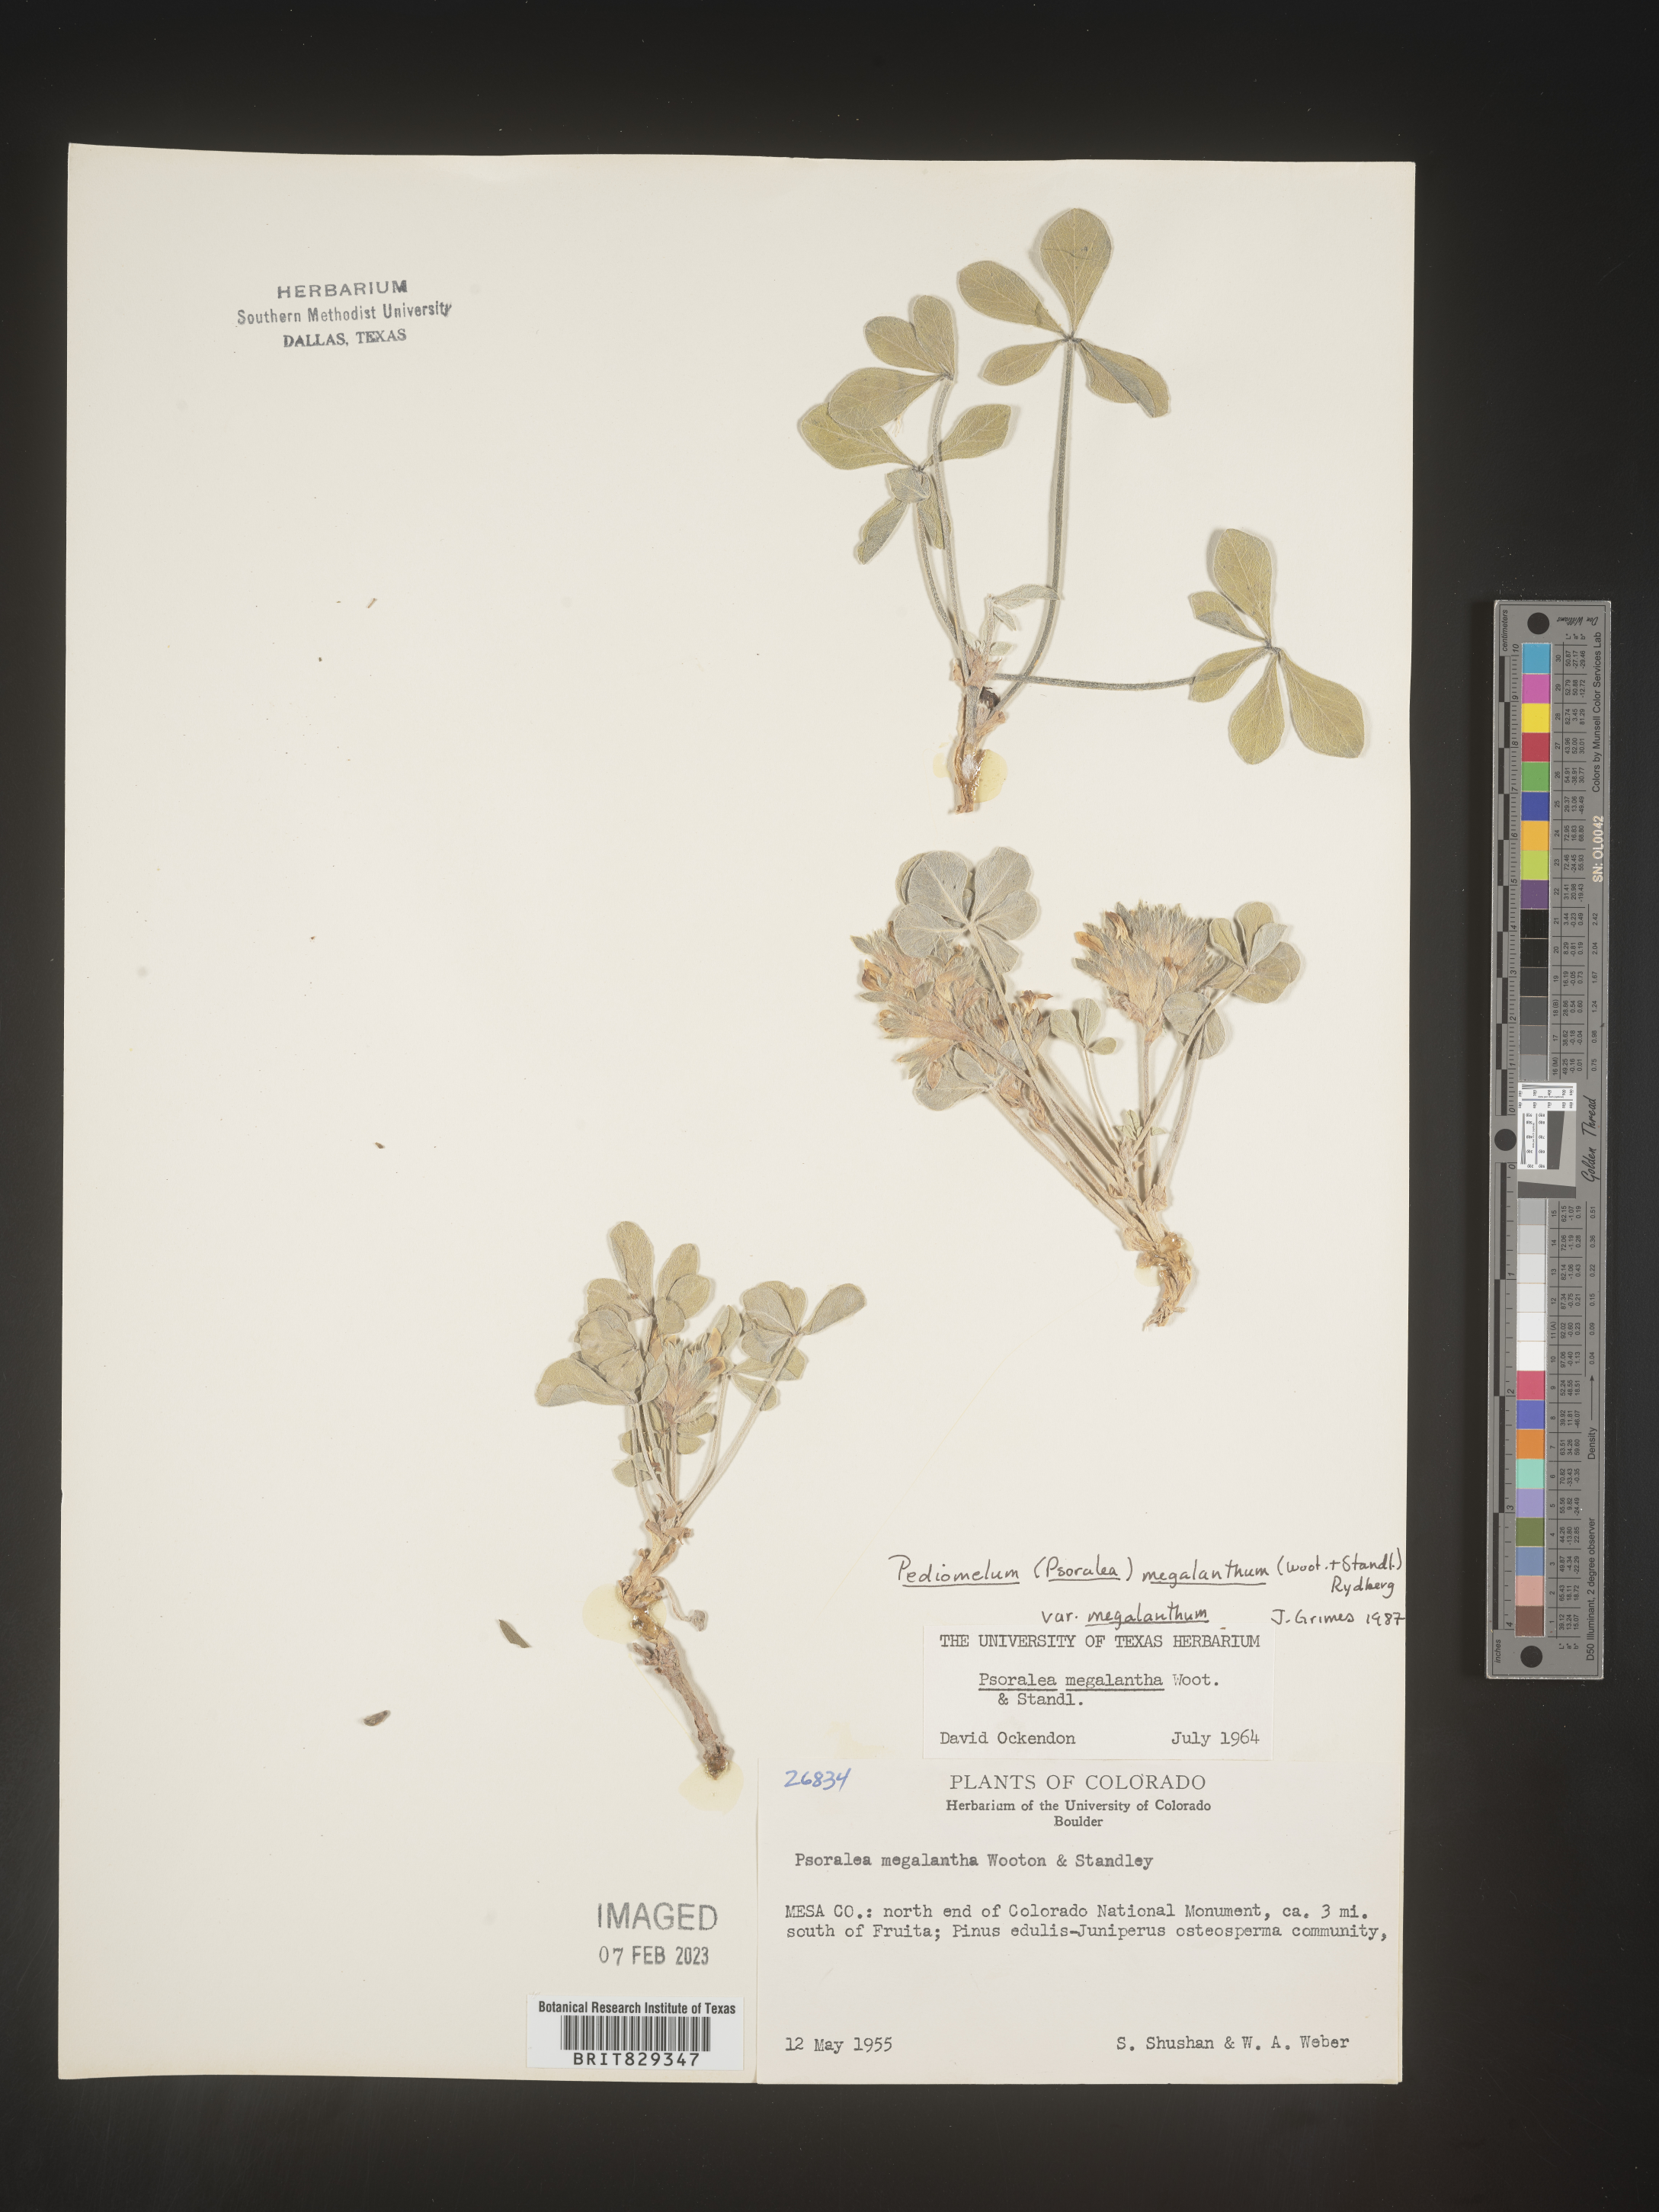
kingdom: Plantae
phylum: Tracheophyta
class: Magnoliopsida
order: Fabales
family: Fabaceae
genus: Psoralea
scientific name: Psoralea
